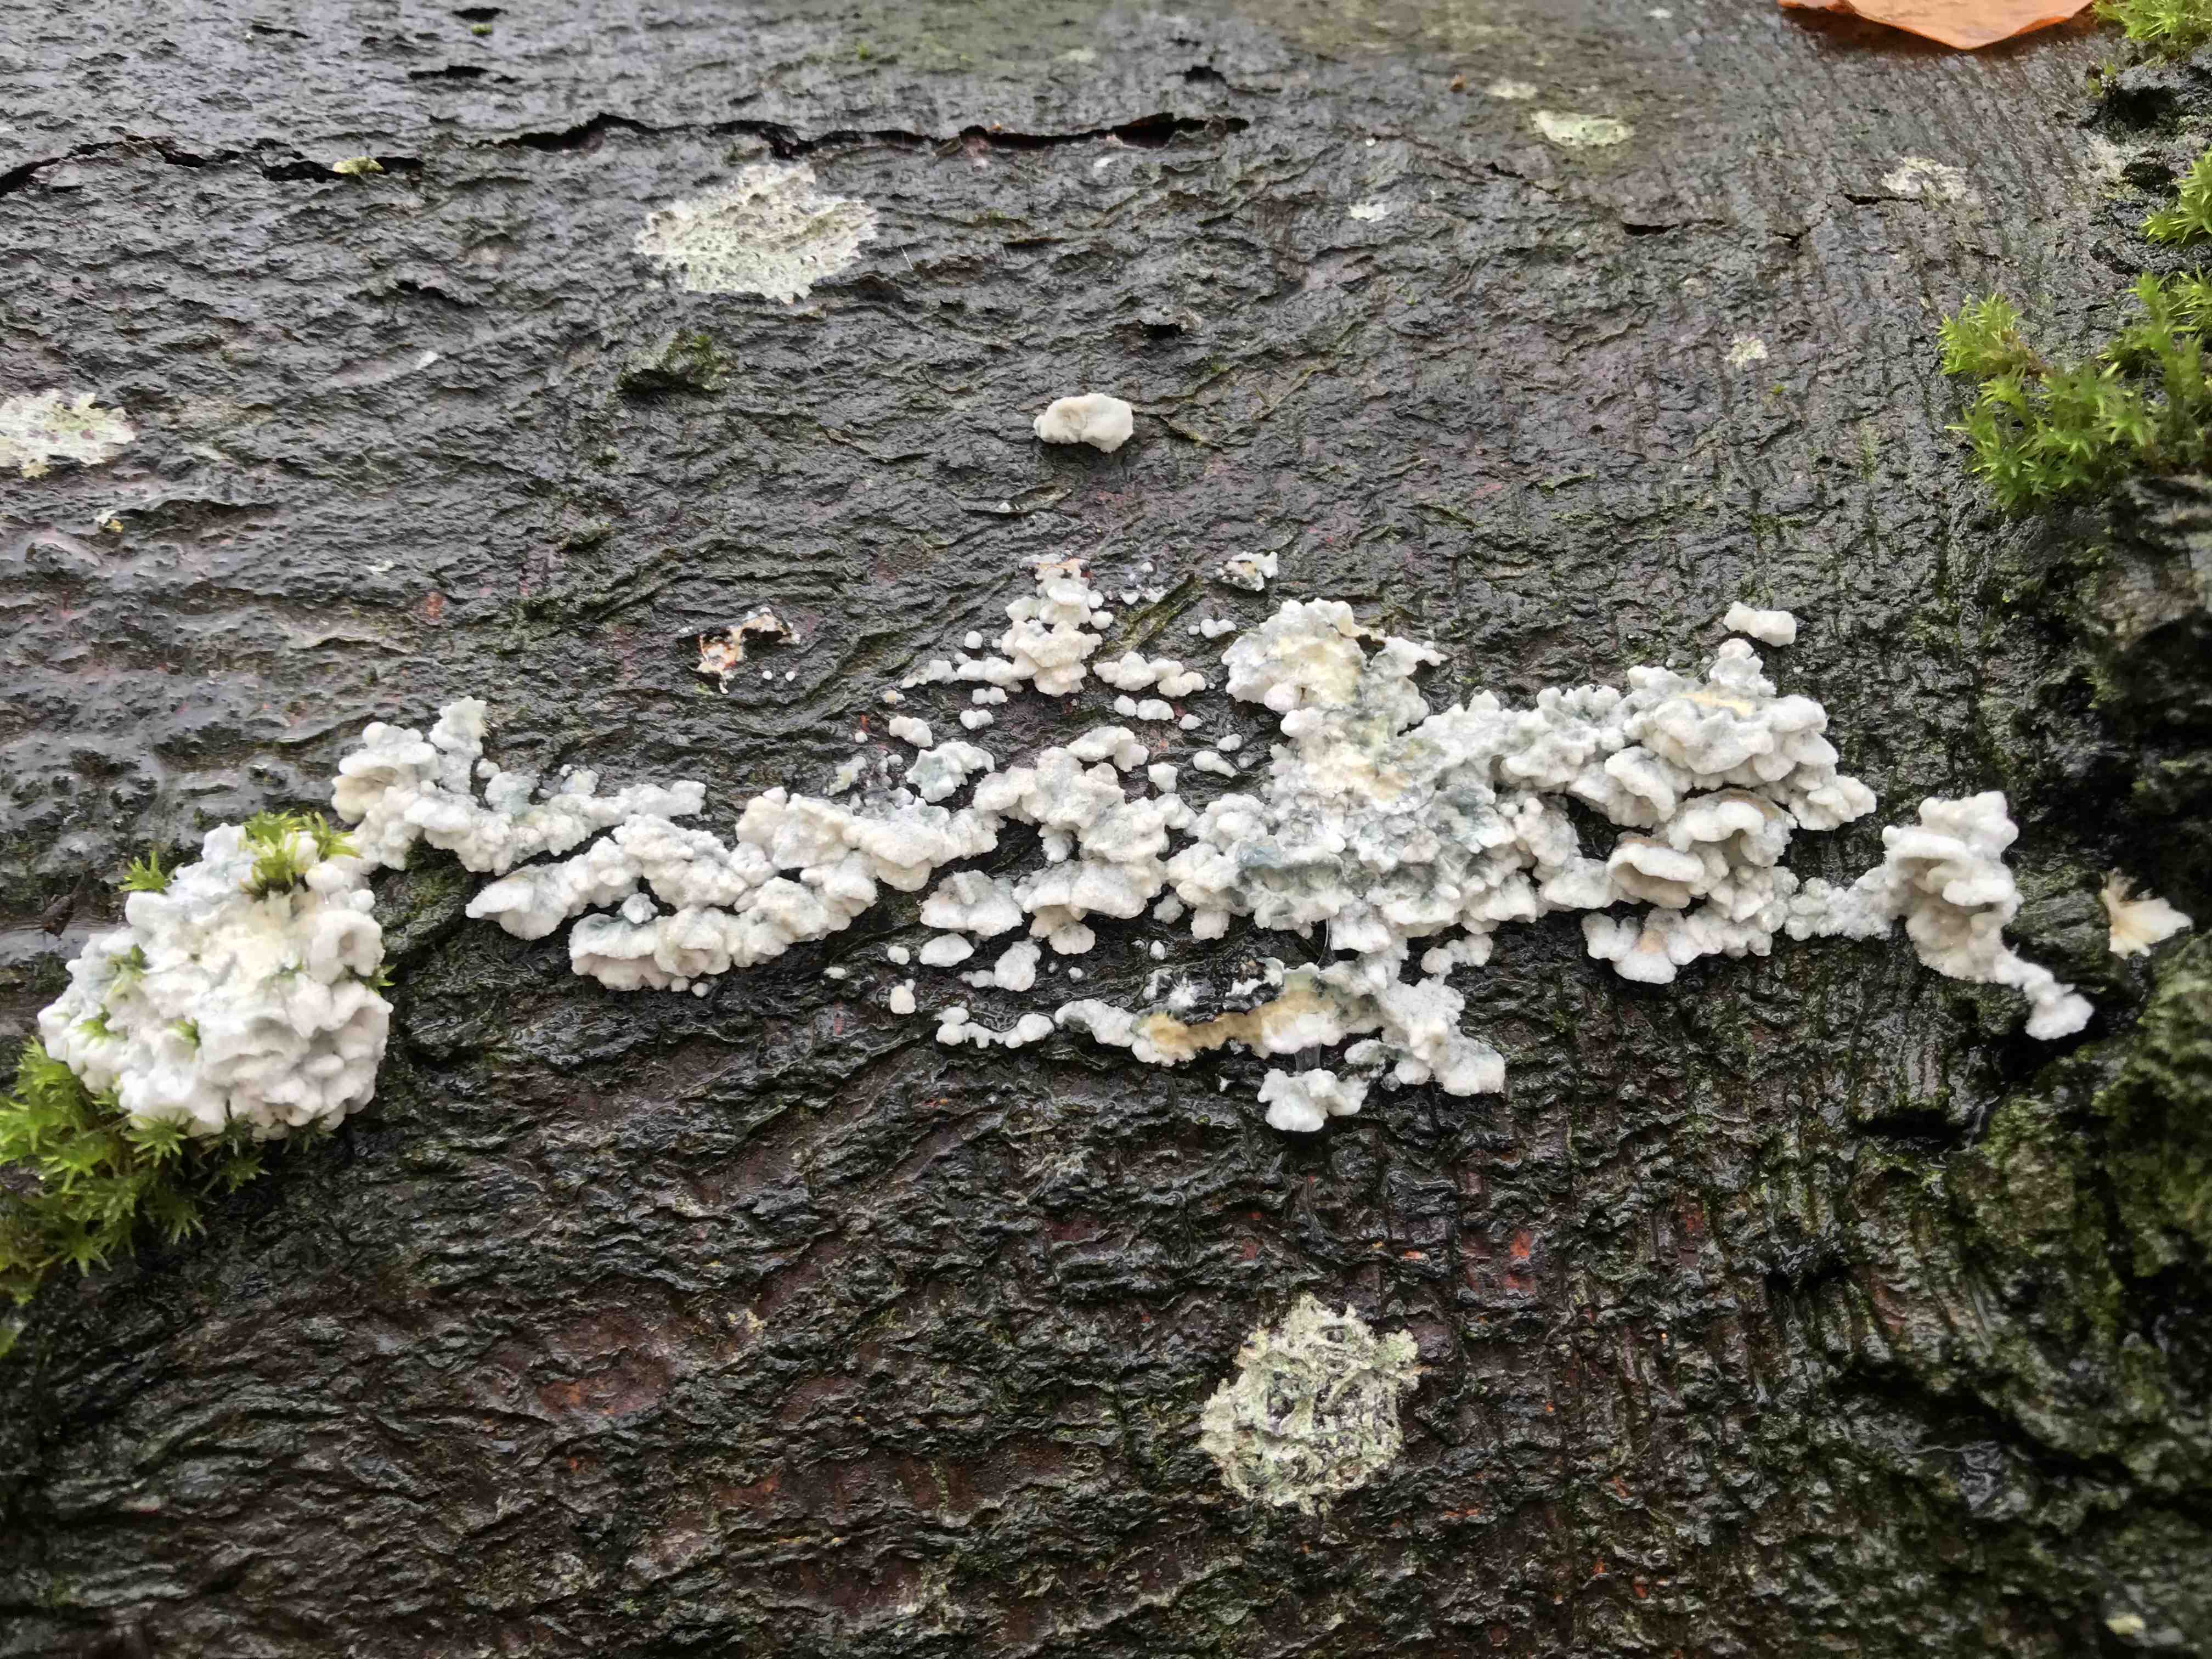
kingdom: Fungi
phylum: Basidiomycota
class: Agaricomycetes
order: Polyporales
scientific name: Polyporales
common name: poresvampordenen
